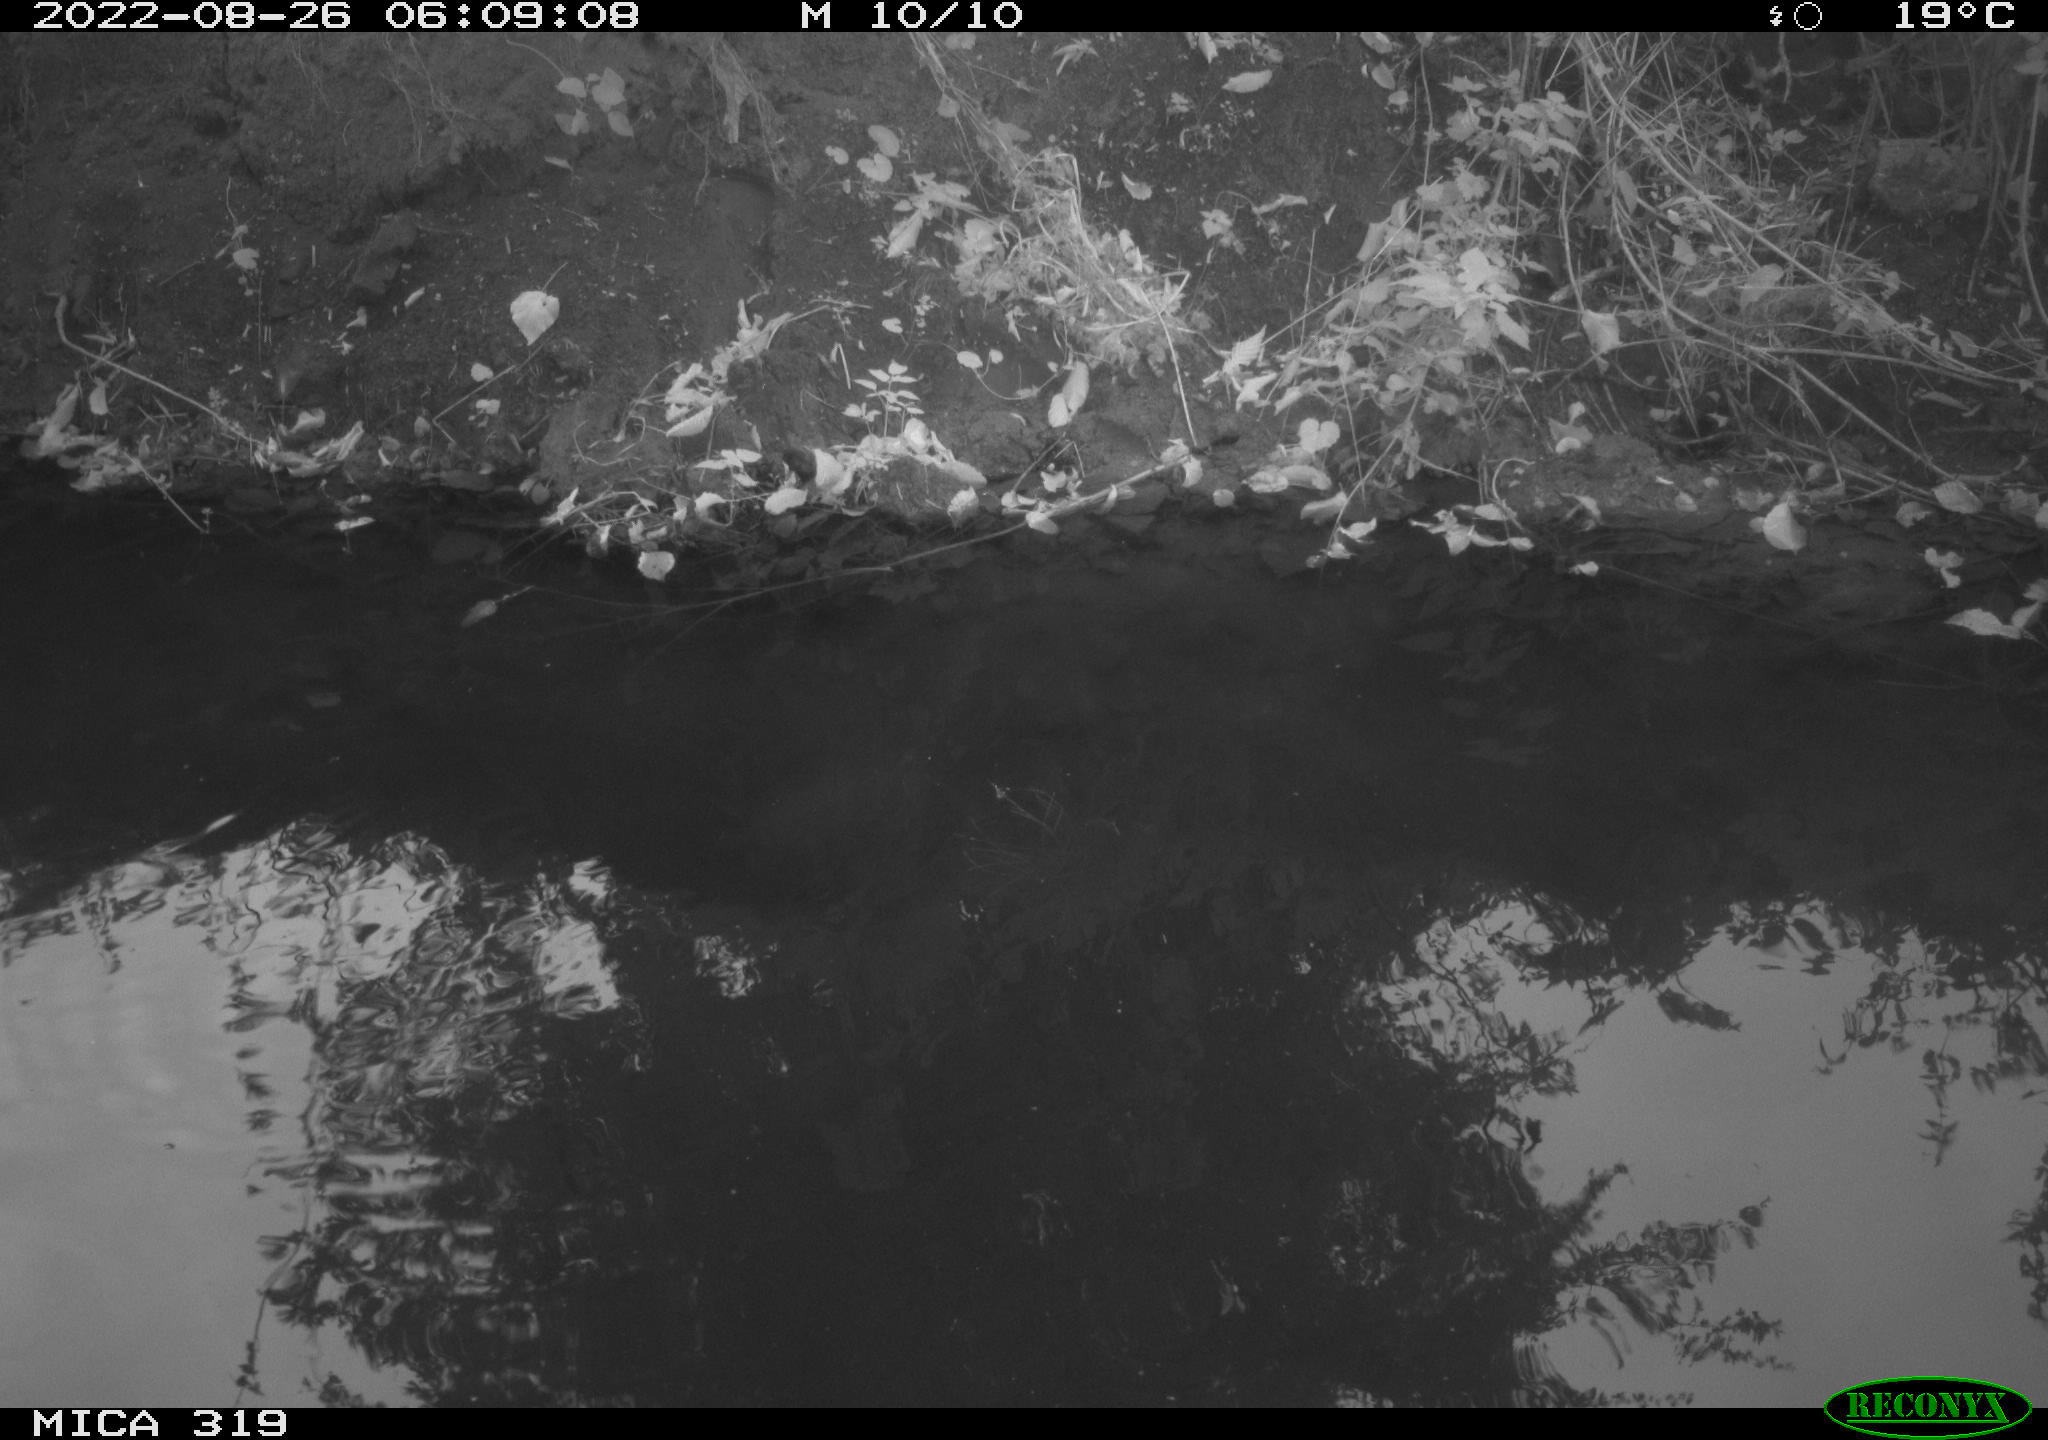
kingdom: Animalia
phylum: Chordata
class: Aves
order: Anseriformes
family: Anatidae
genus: Anas
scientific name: Anas
